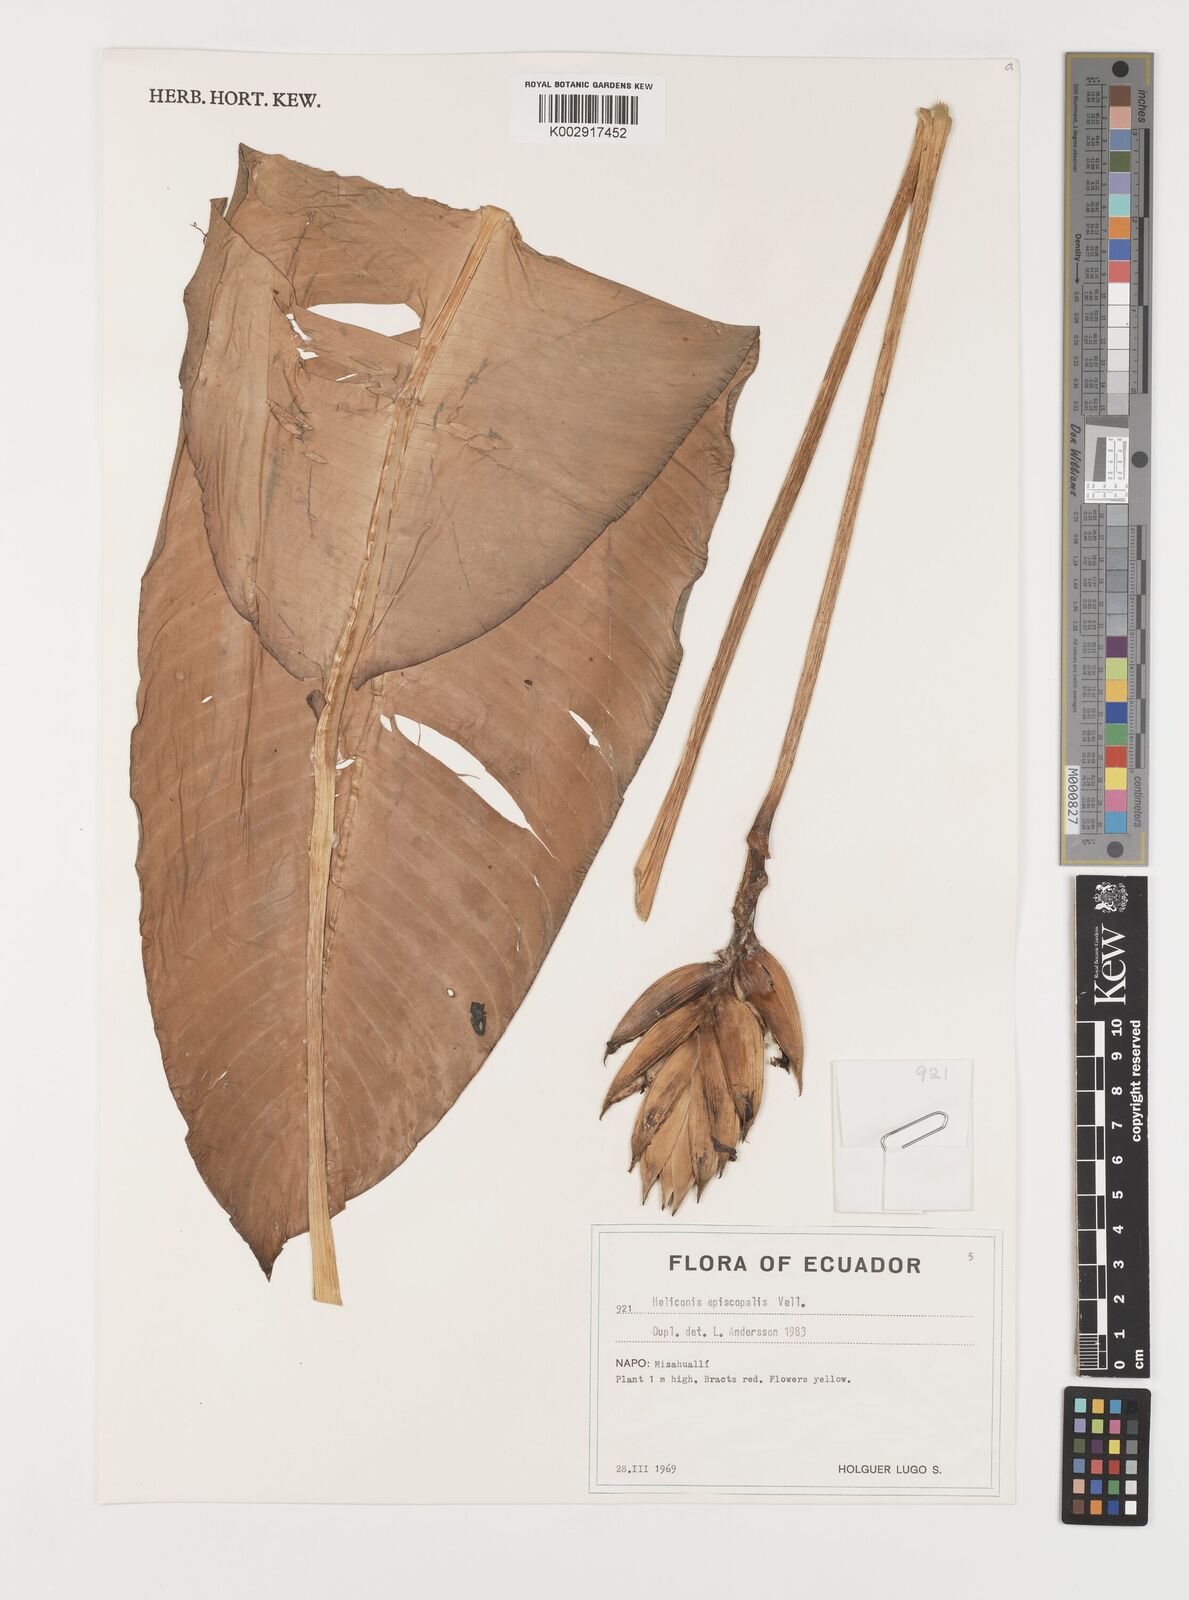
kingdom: Plantae
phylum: Tracheophyta
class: Liliopsida
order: Zingiberales
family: Heliconiaceae
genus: Heliconia
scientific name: Heliconia episcopalis
